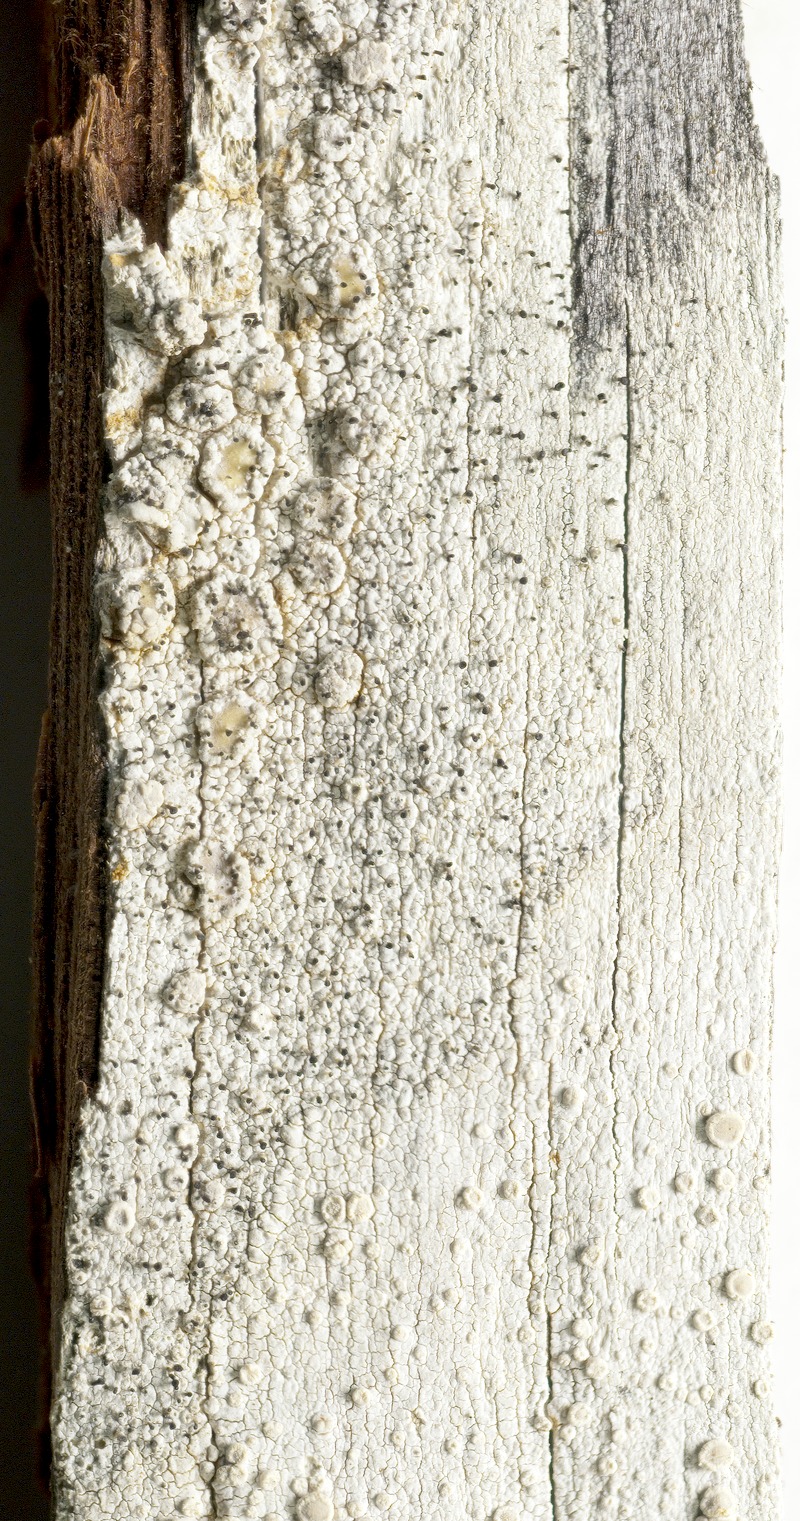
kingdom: Fungi
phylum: Ascomycota
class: Lecanoromycetes
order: Lecanorales
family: Lecanoraceae
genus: Lecanora
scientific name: Lecanora caesiorubella
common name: Frosted rim-lichen
